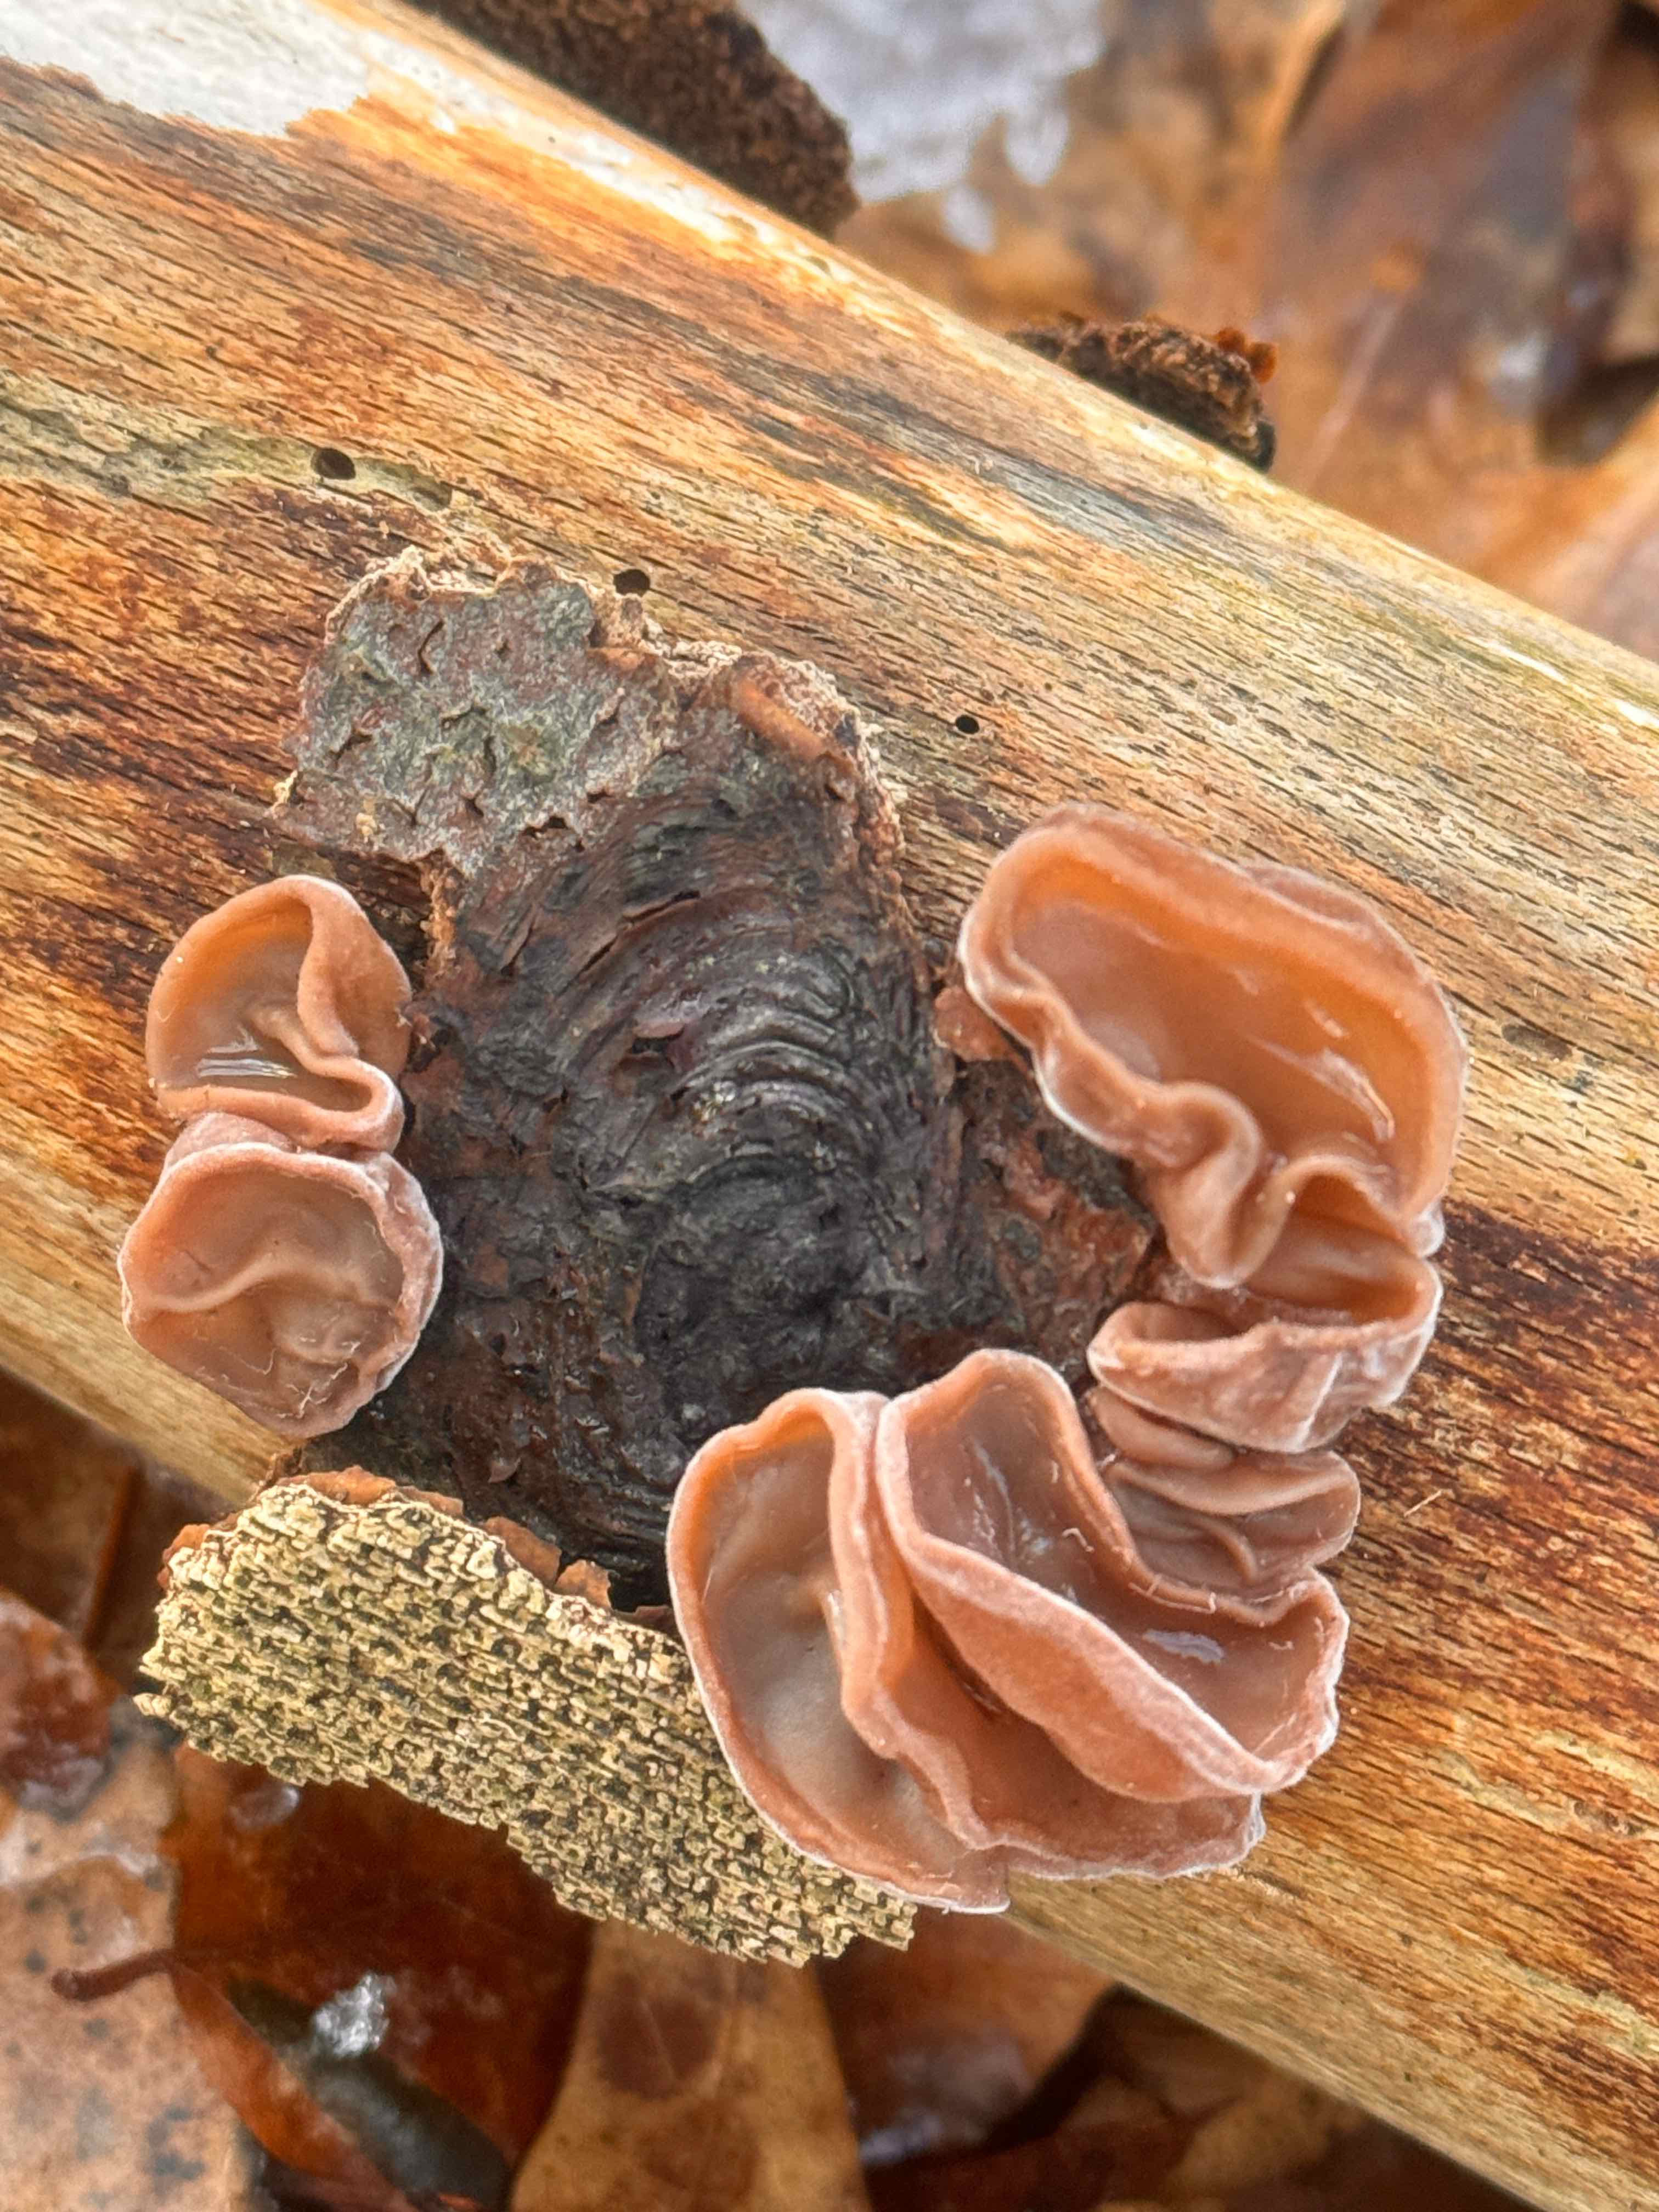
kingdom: Fungi
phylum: Basidiomycota
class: Agaricomycetes
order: Auriculariales
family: Auriculariaceae
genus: Auricularia
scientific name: Auricularia auricula-judae
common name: almindelig judasøre
